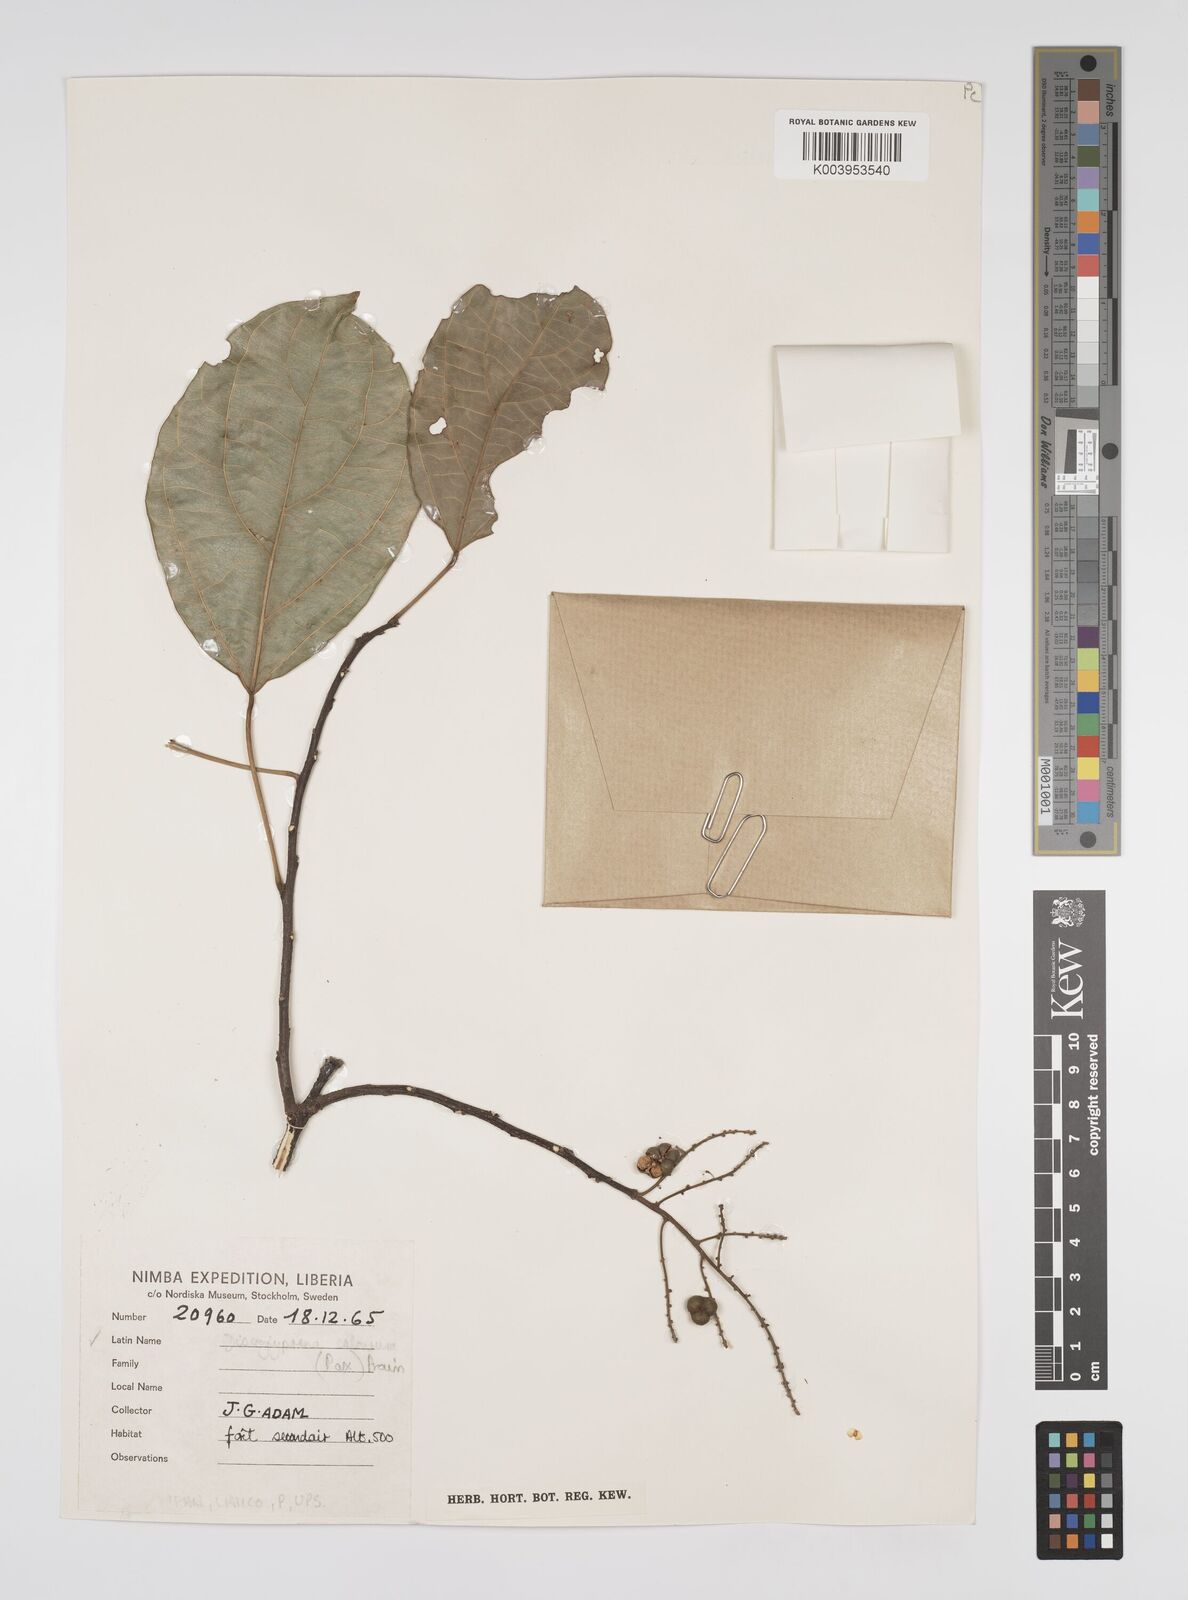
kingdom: Plantae
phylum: Tracheophyta
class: Magnoliopsida
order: Malpighiales
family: Euphorbiaceae
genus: Discoglypremna
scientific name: Discoglypremna caloneura
